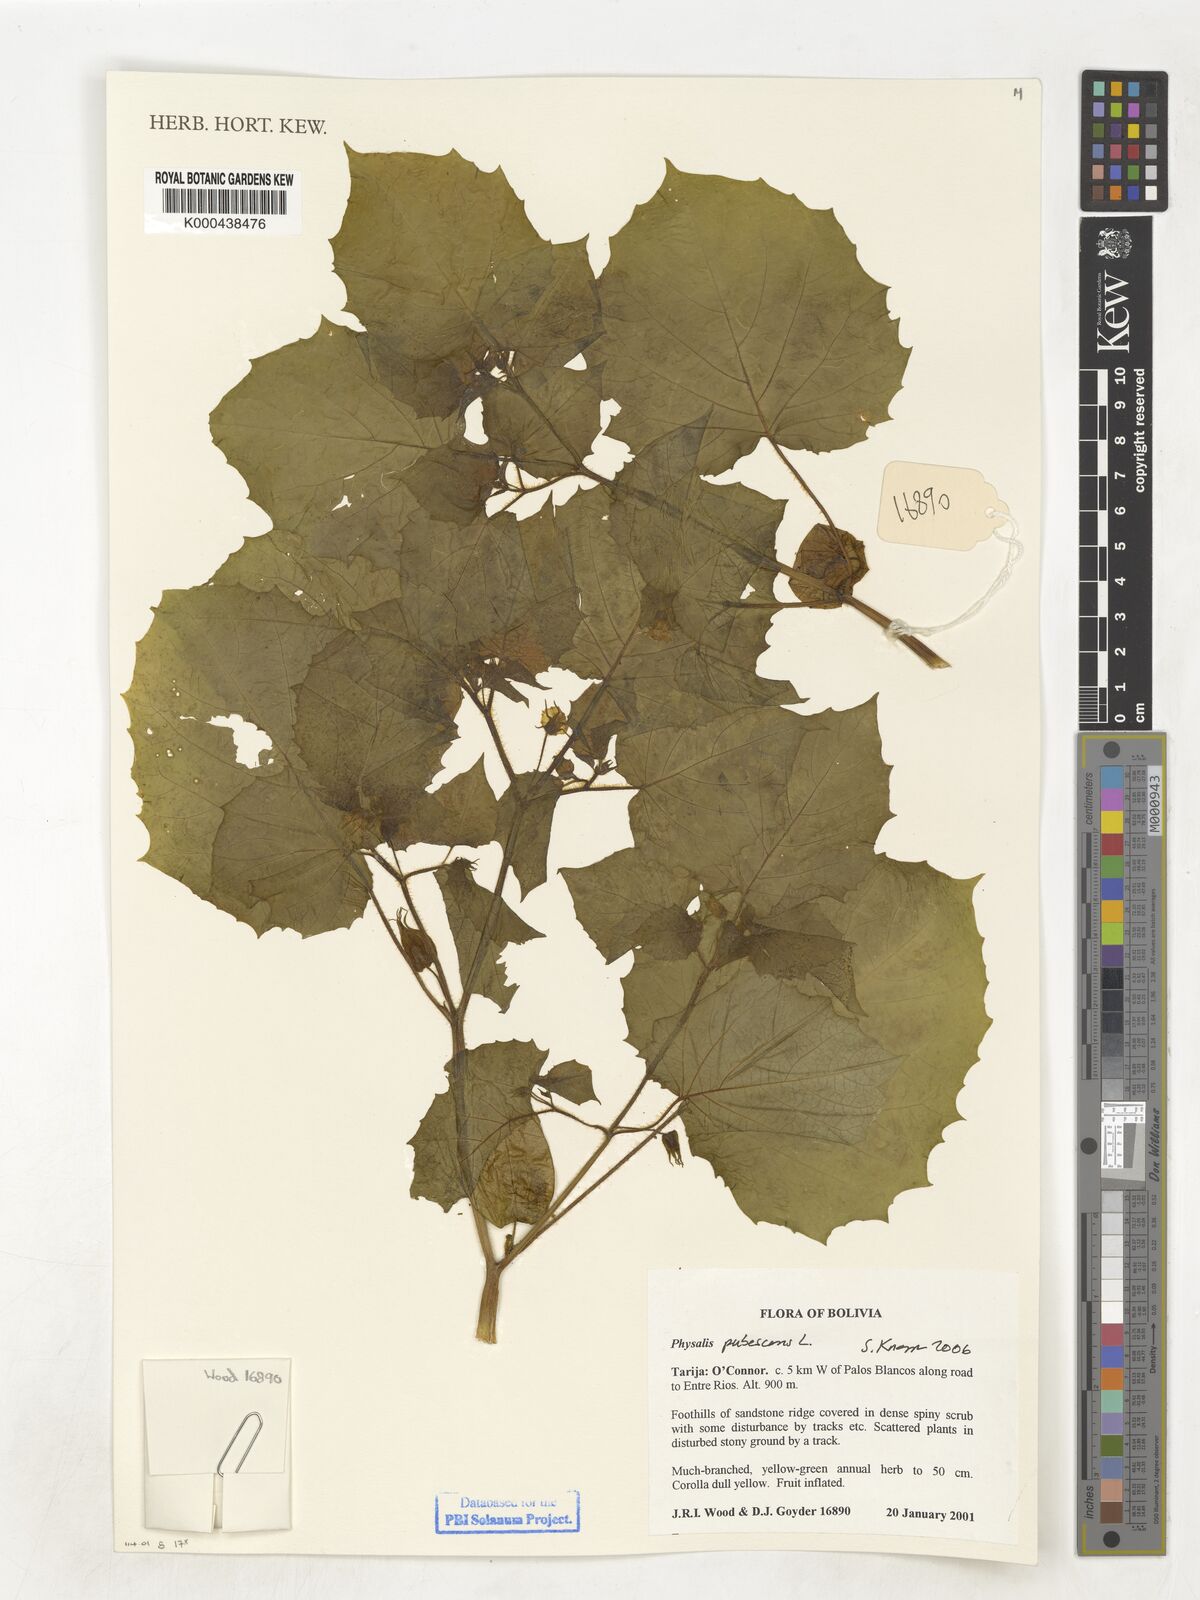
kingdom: Plantae
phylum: Tracheophyta
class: Magnoliopsida
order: Solanales
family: Solanaceae
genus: Physalis
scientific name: Physalis pubescens
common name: Downy ground-cherry
